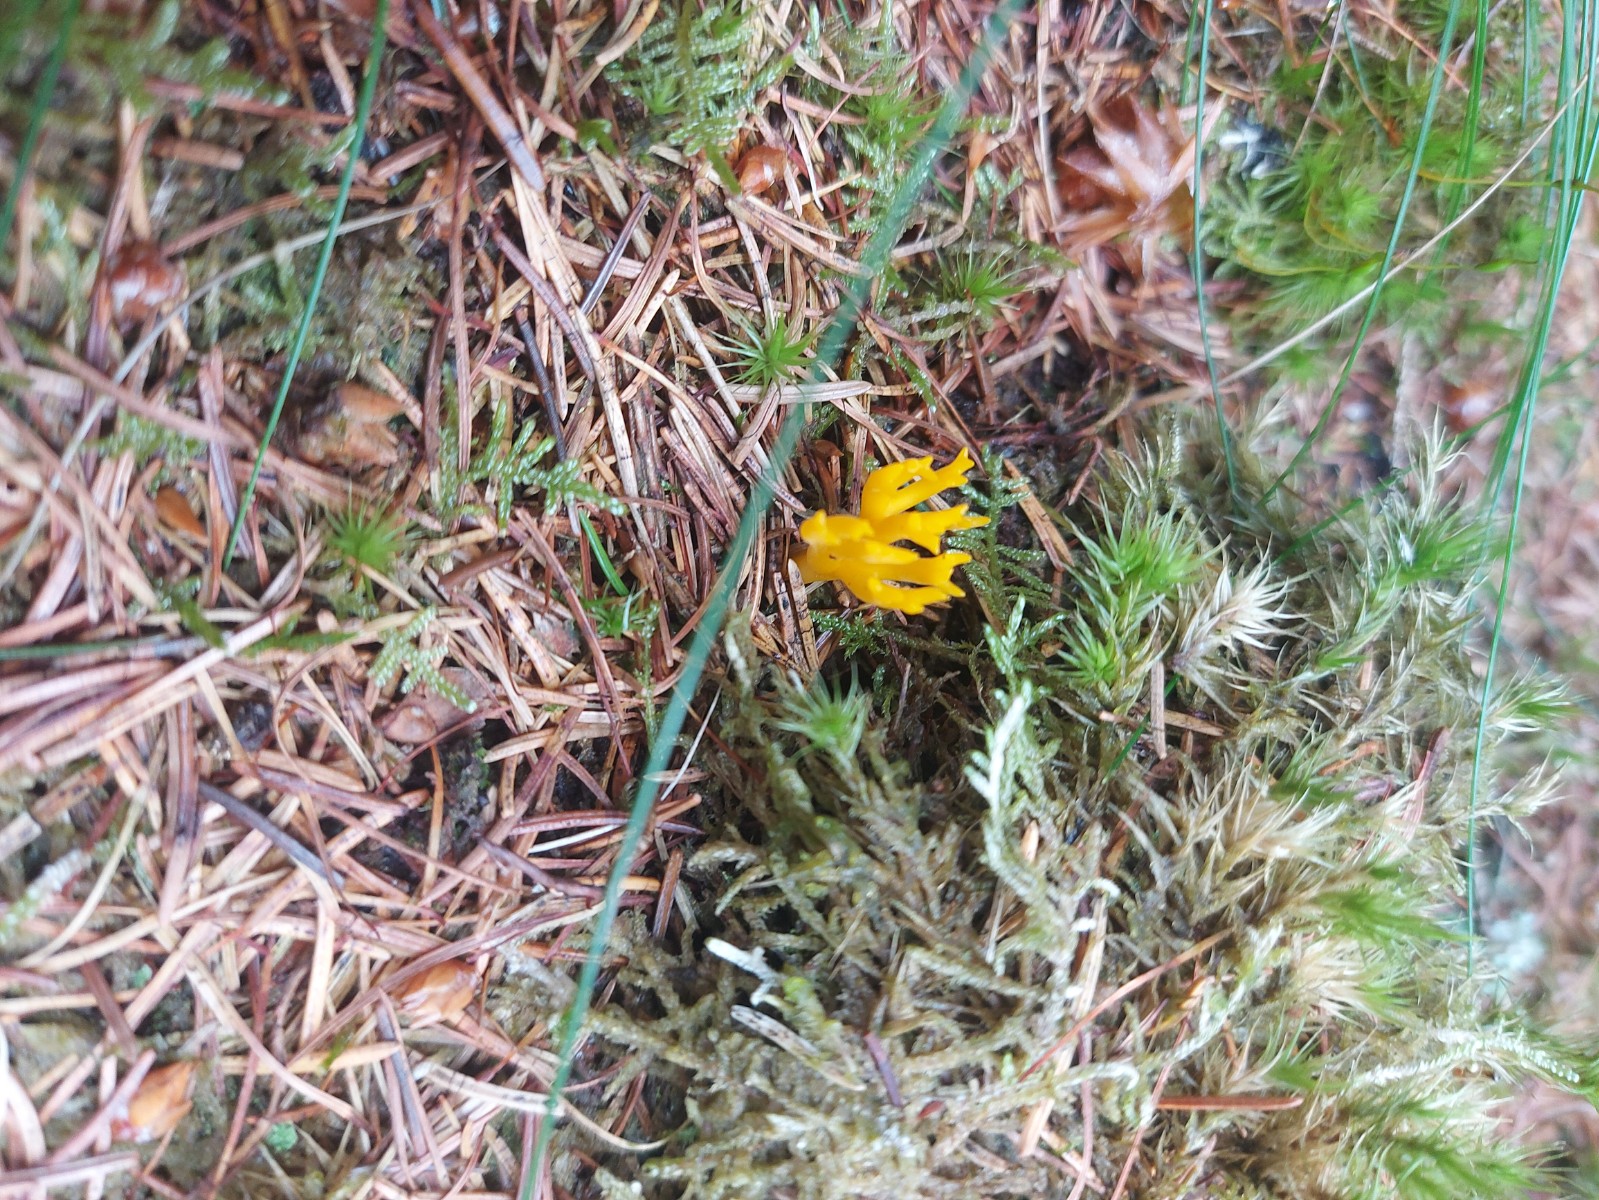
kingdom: Fungi
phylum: Basidiomycota
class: Dacrymycetes
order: Dacrymycetales
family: Dacrymycetaceae
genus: Calocera
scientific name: Calocera viscosa
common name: almindelig guldgaffel
